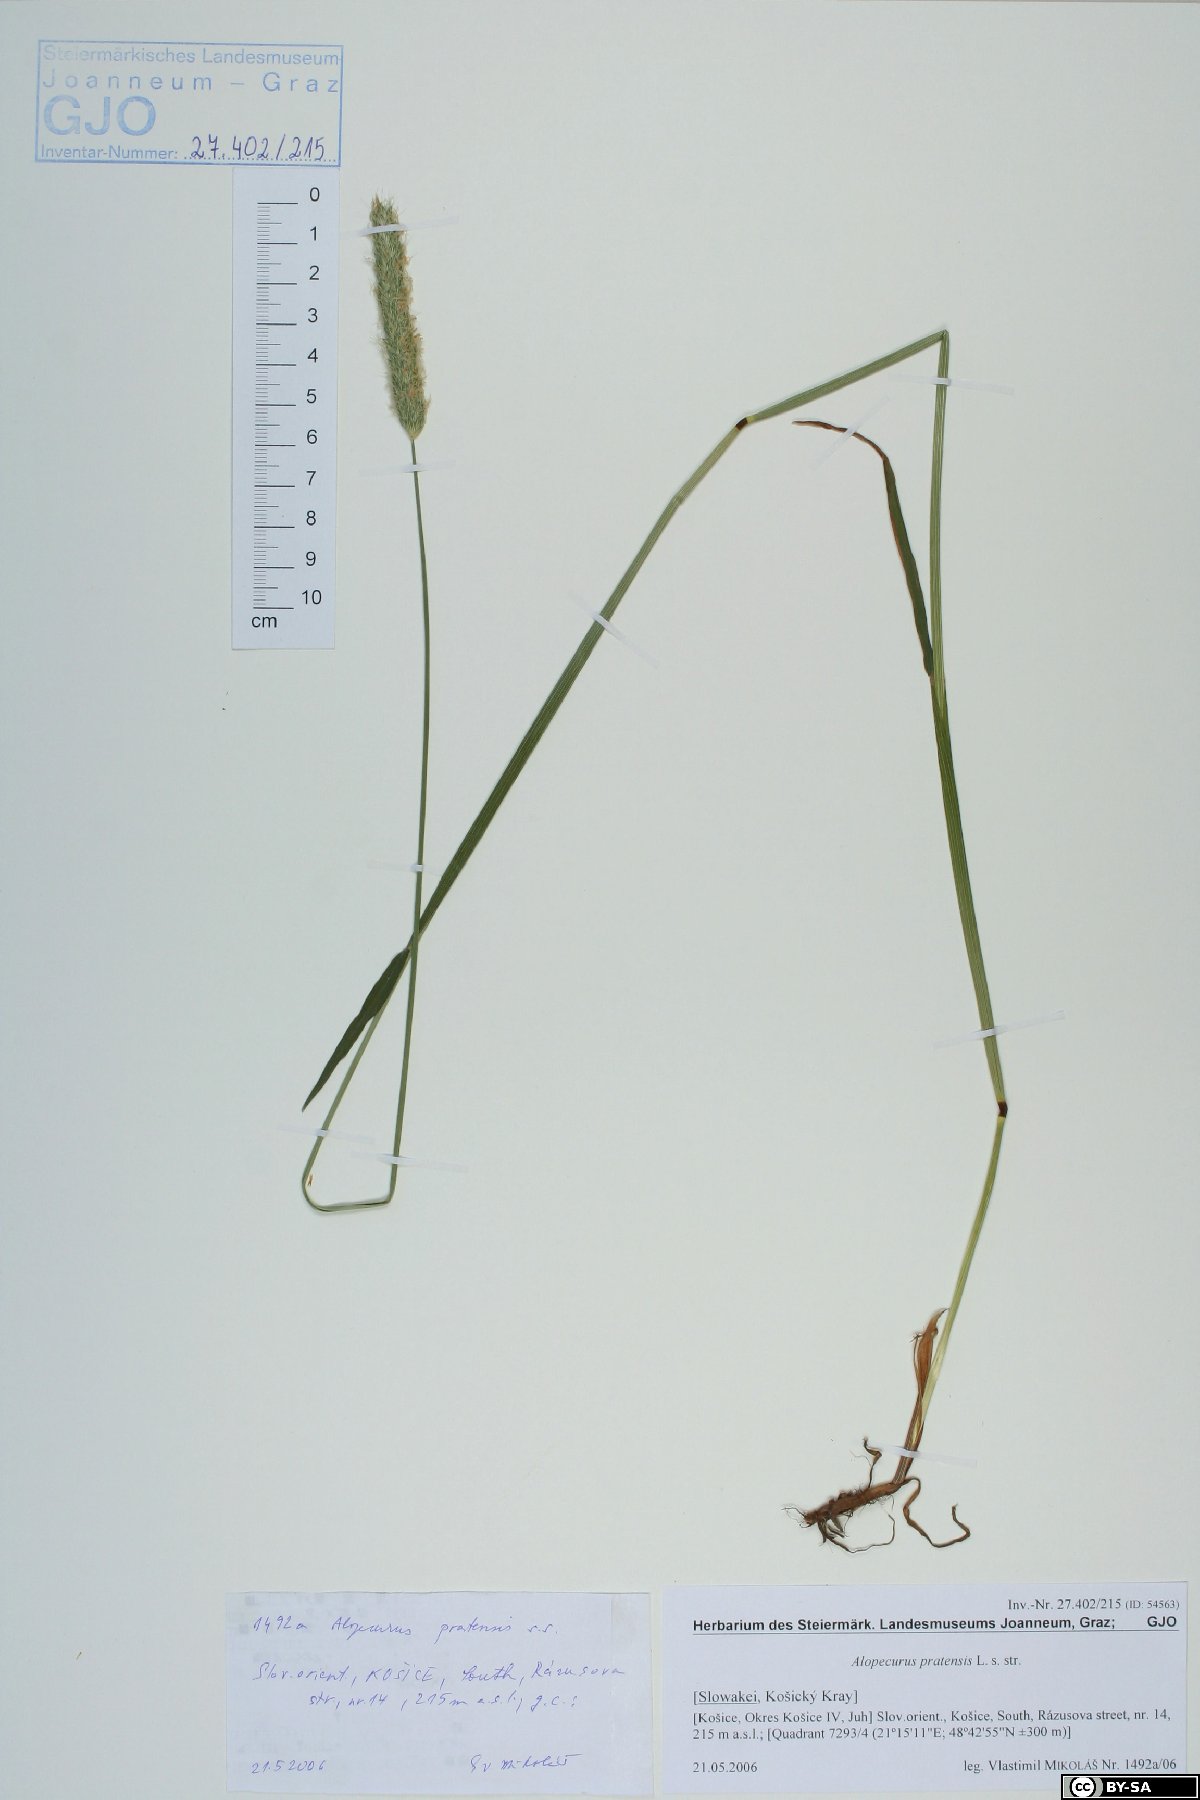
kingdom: Plantae
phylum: Tracheophyta
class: Liliopsida
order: Poales
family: Poaceae
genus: Alopecurus
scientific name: Alopecurus pratensis
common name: Meadow foxtail
